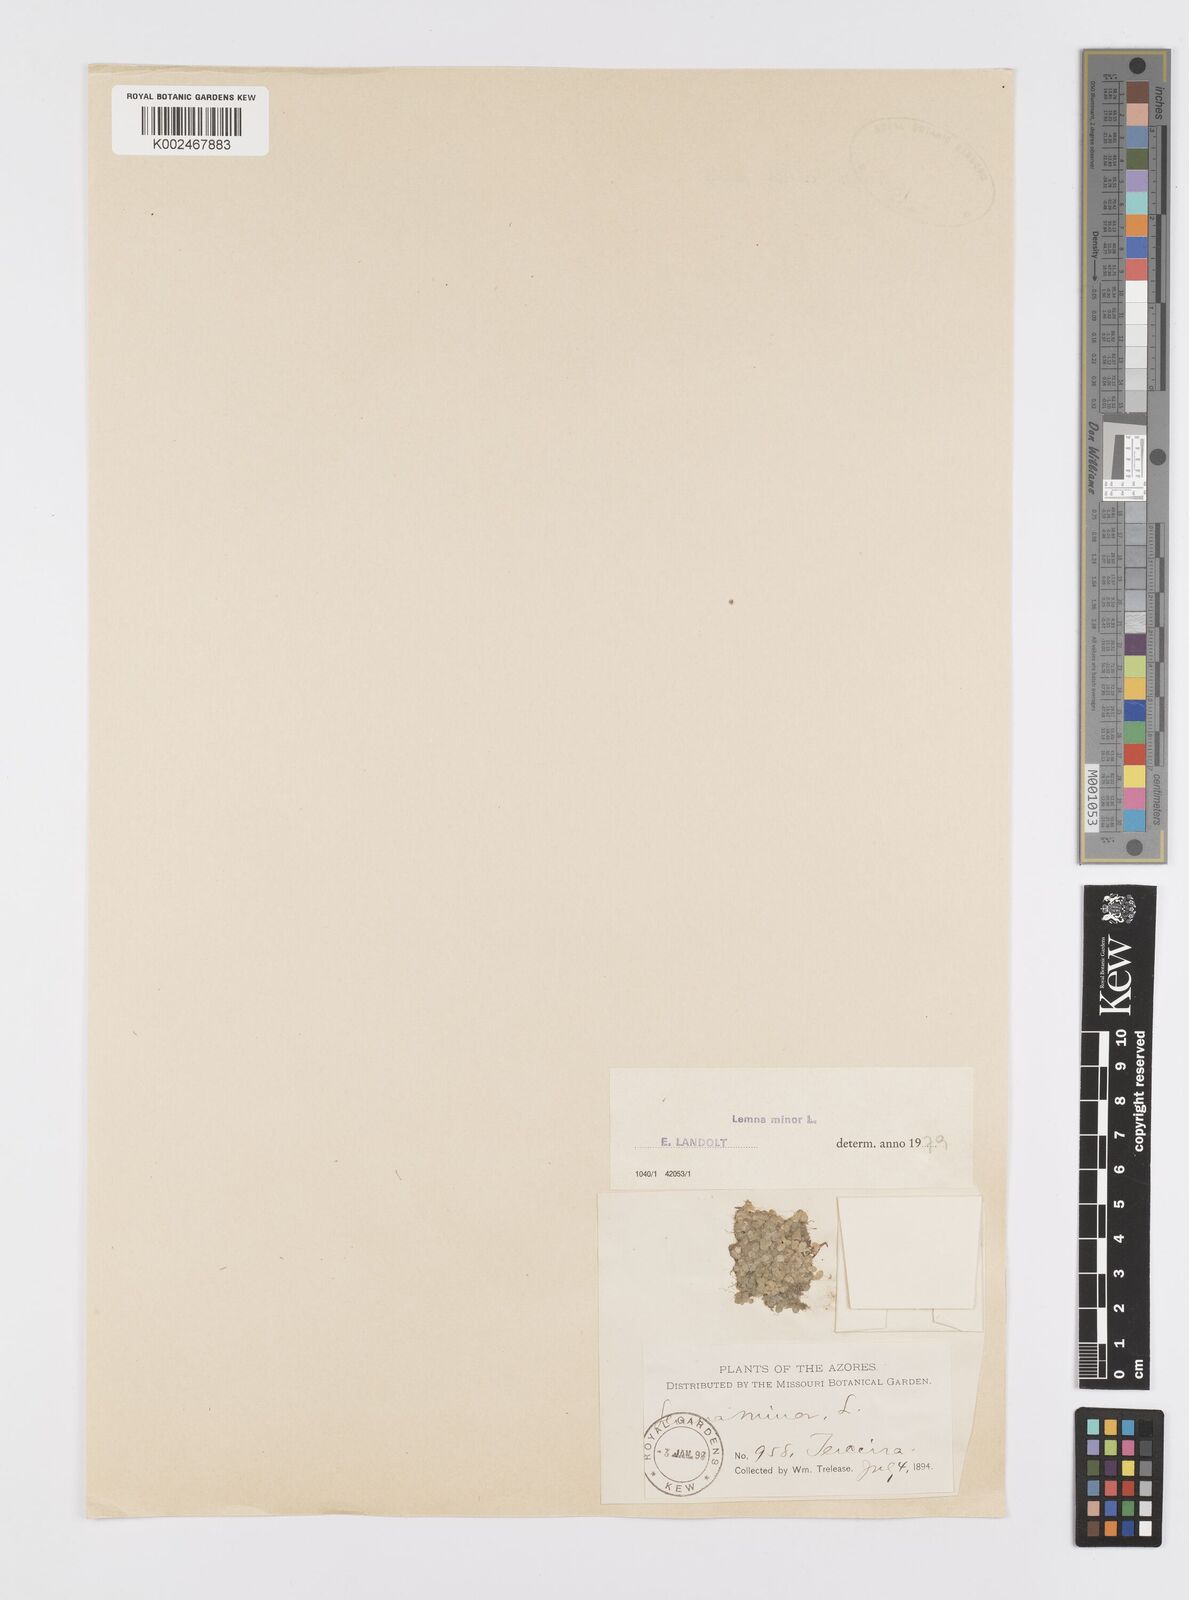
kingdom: Plantae
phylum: Tracheophyta
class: Liliopsida
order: Alismatales
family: Araceae
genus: Lemna
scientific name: Lemna minor
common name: Common duckweed
